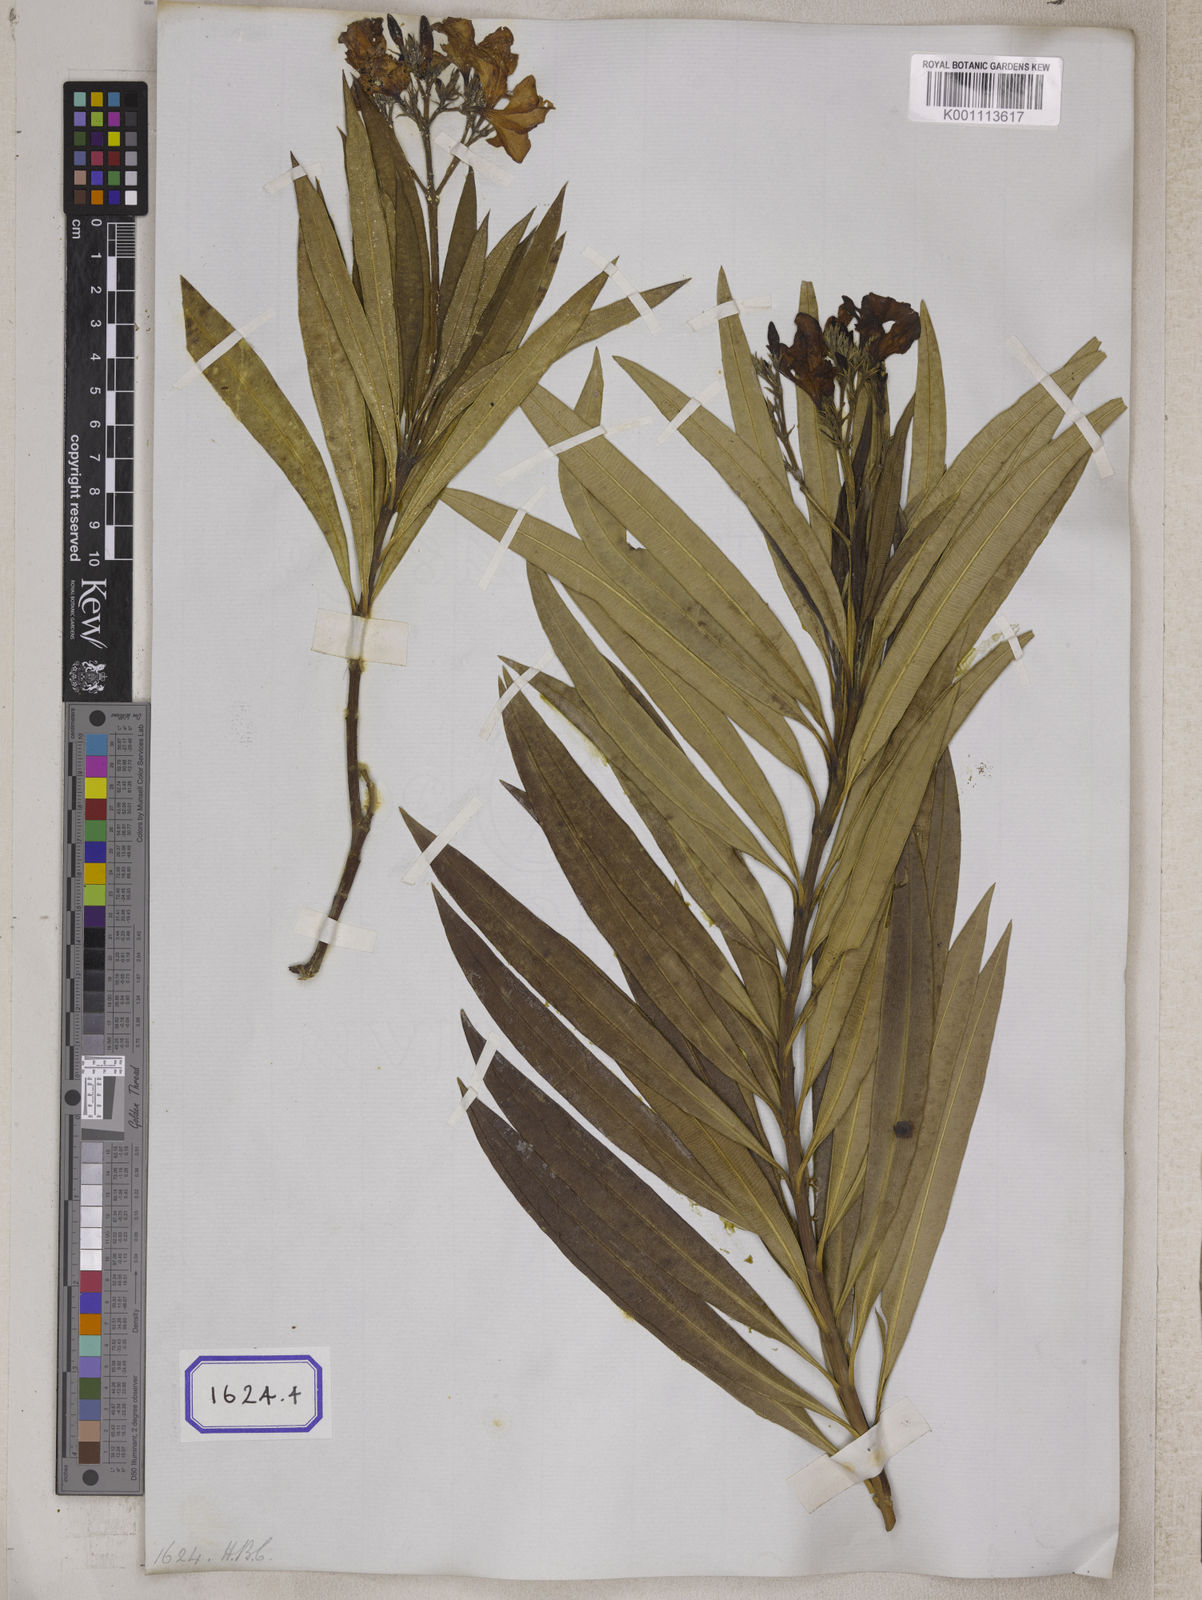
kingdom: Plantae
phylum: Tracheophyta
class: Magnoliopsida
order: Gentianales
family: Apocynaceae
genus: Nerium
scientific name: Nerium indicum
